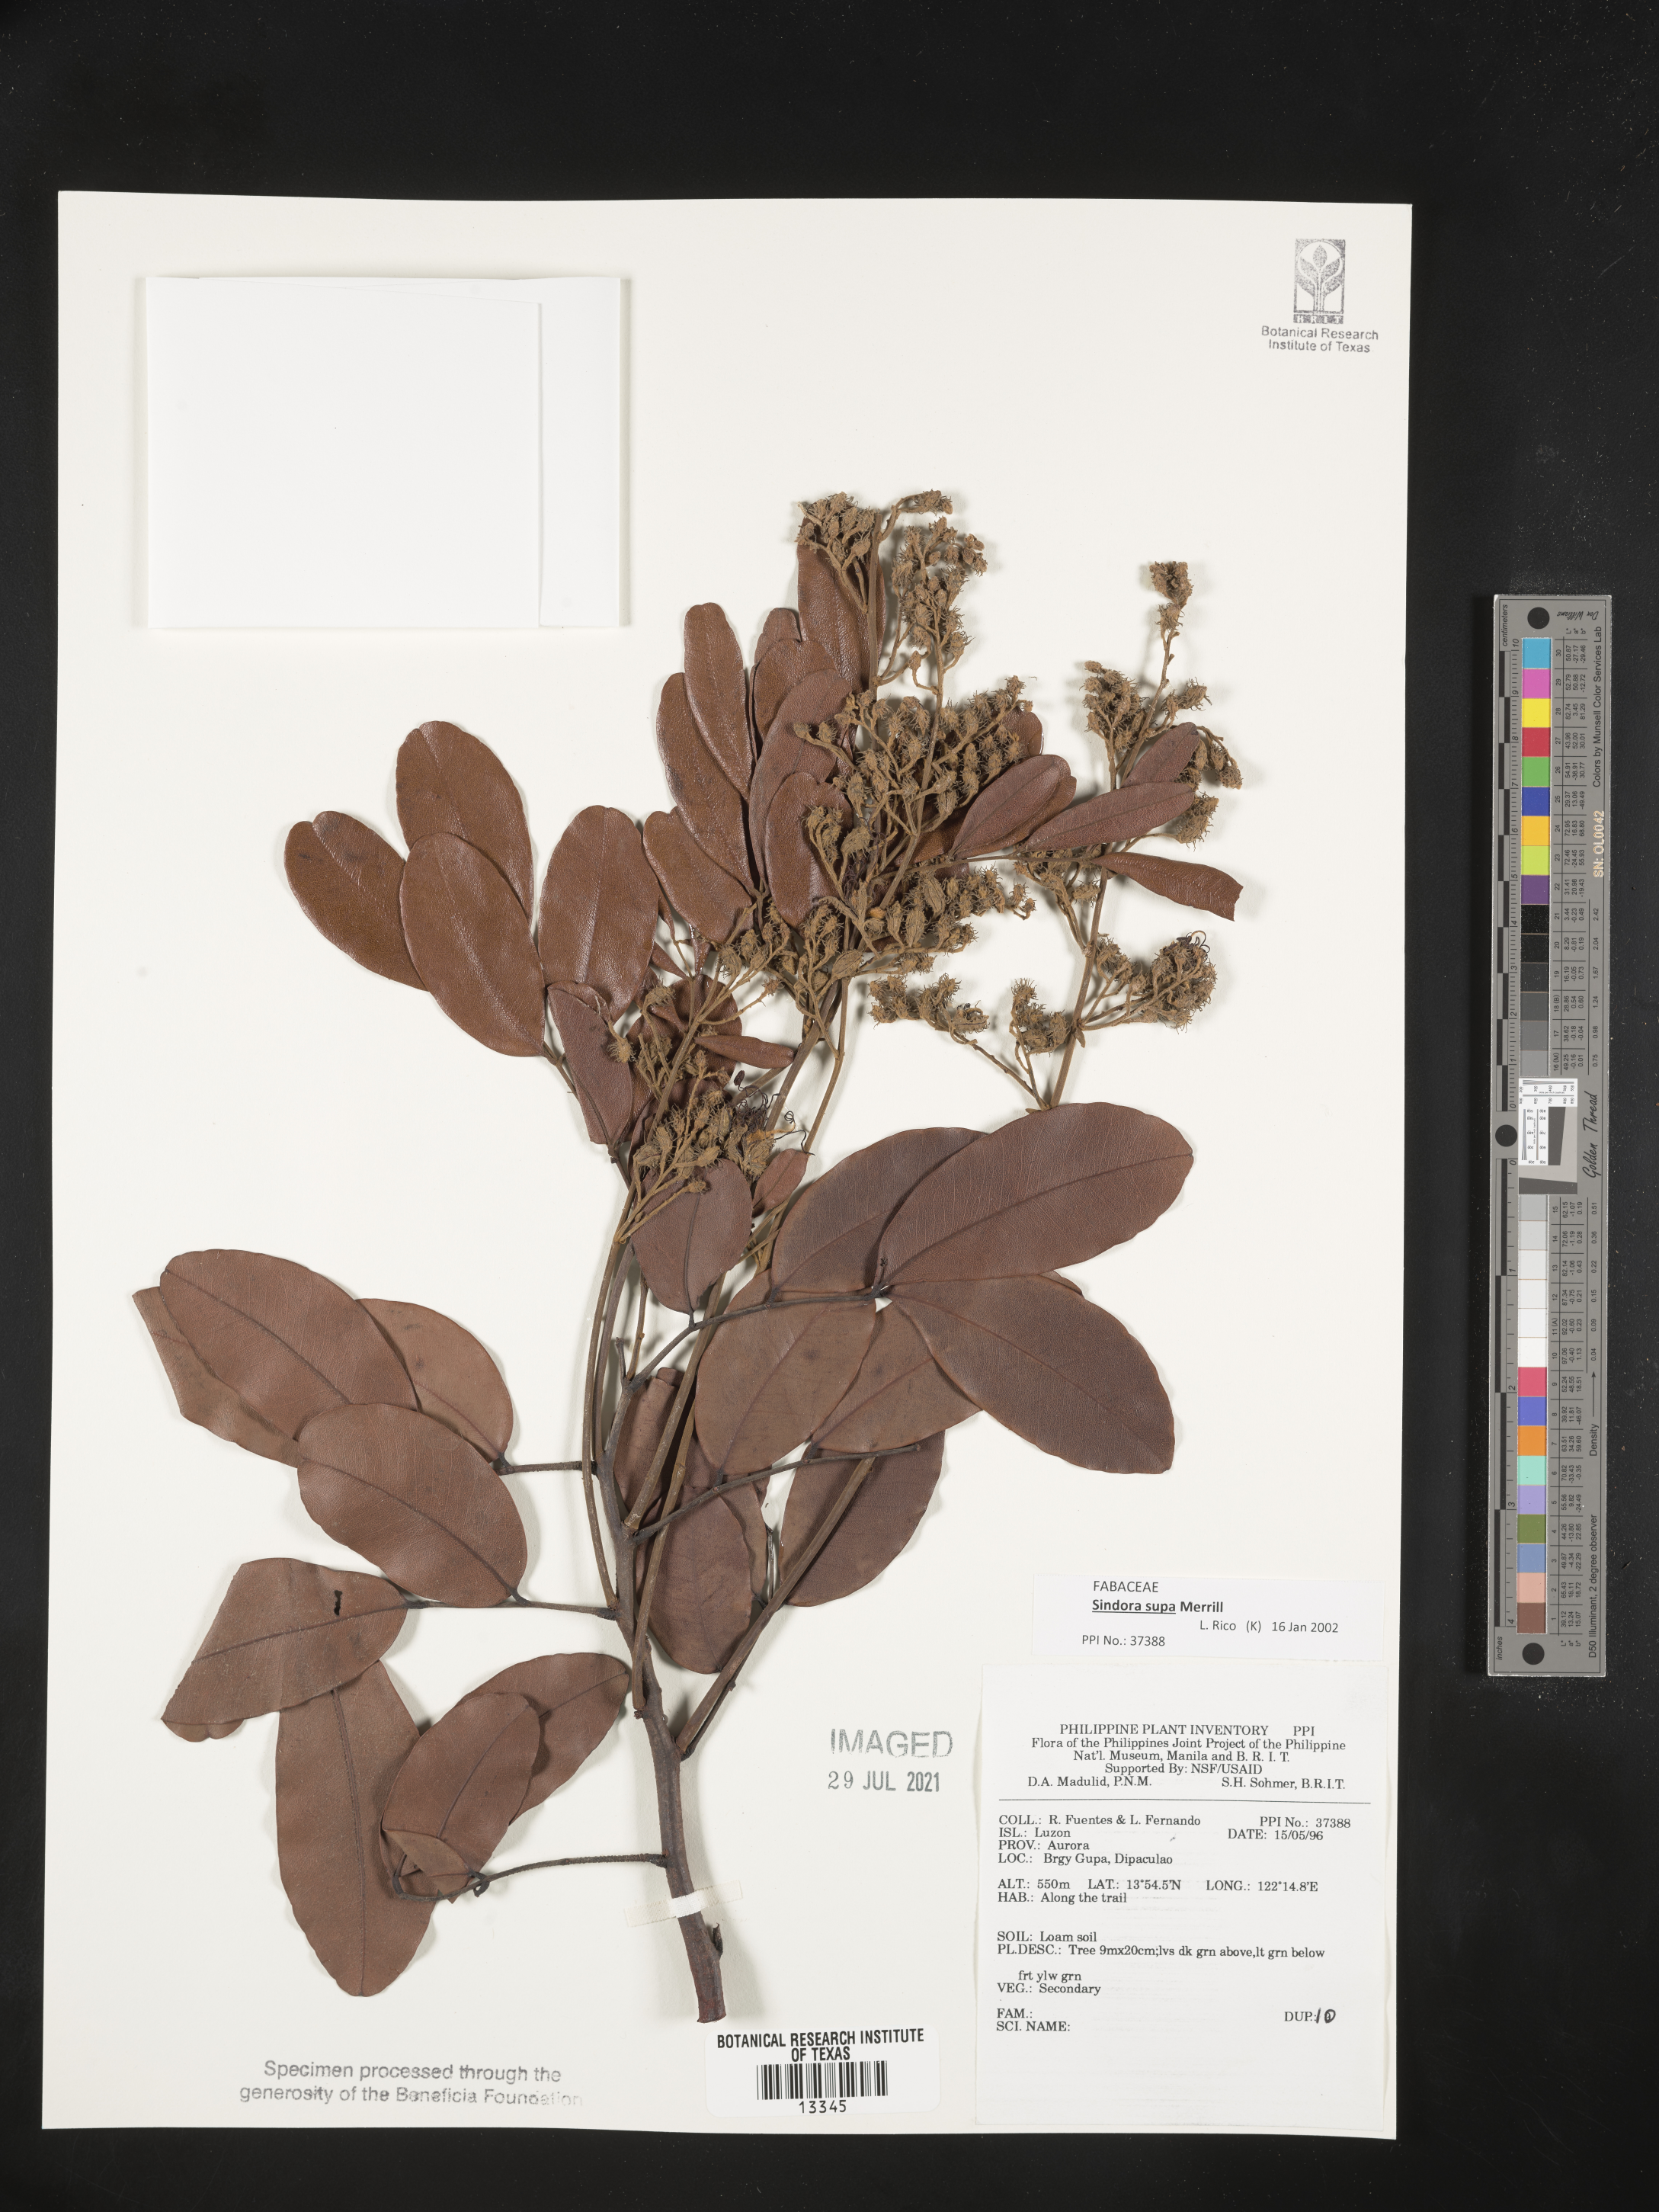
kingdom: Plantae
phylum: Tracheophyta
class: Magnoliopsida
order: Fabales
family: Fabaceae
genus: Sindora
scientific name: Sindora supa
